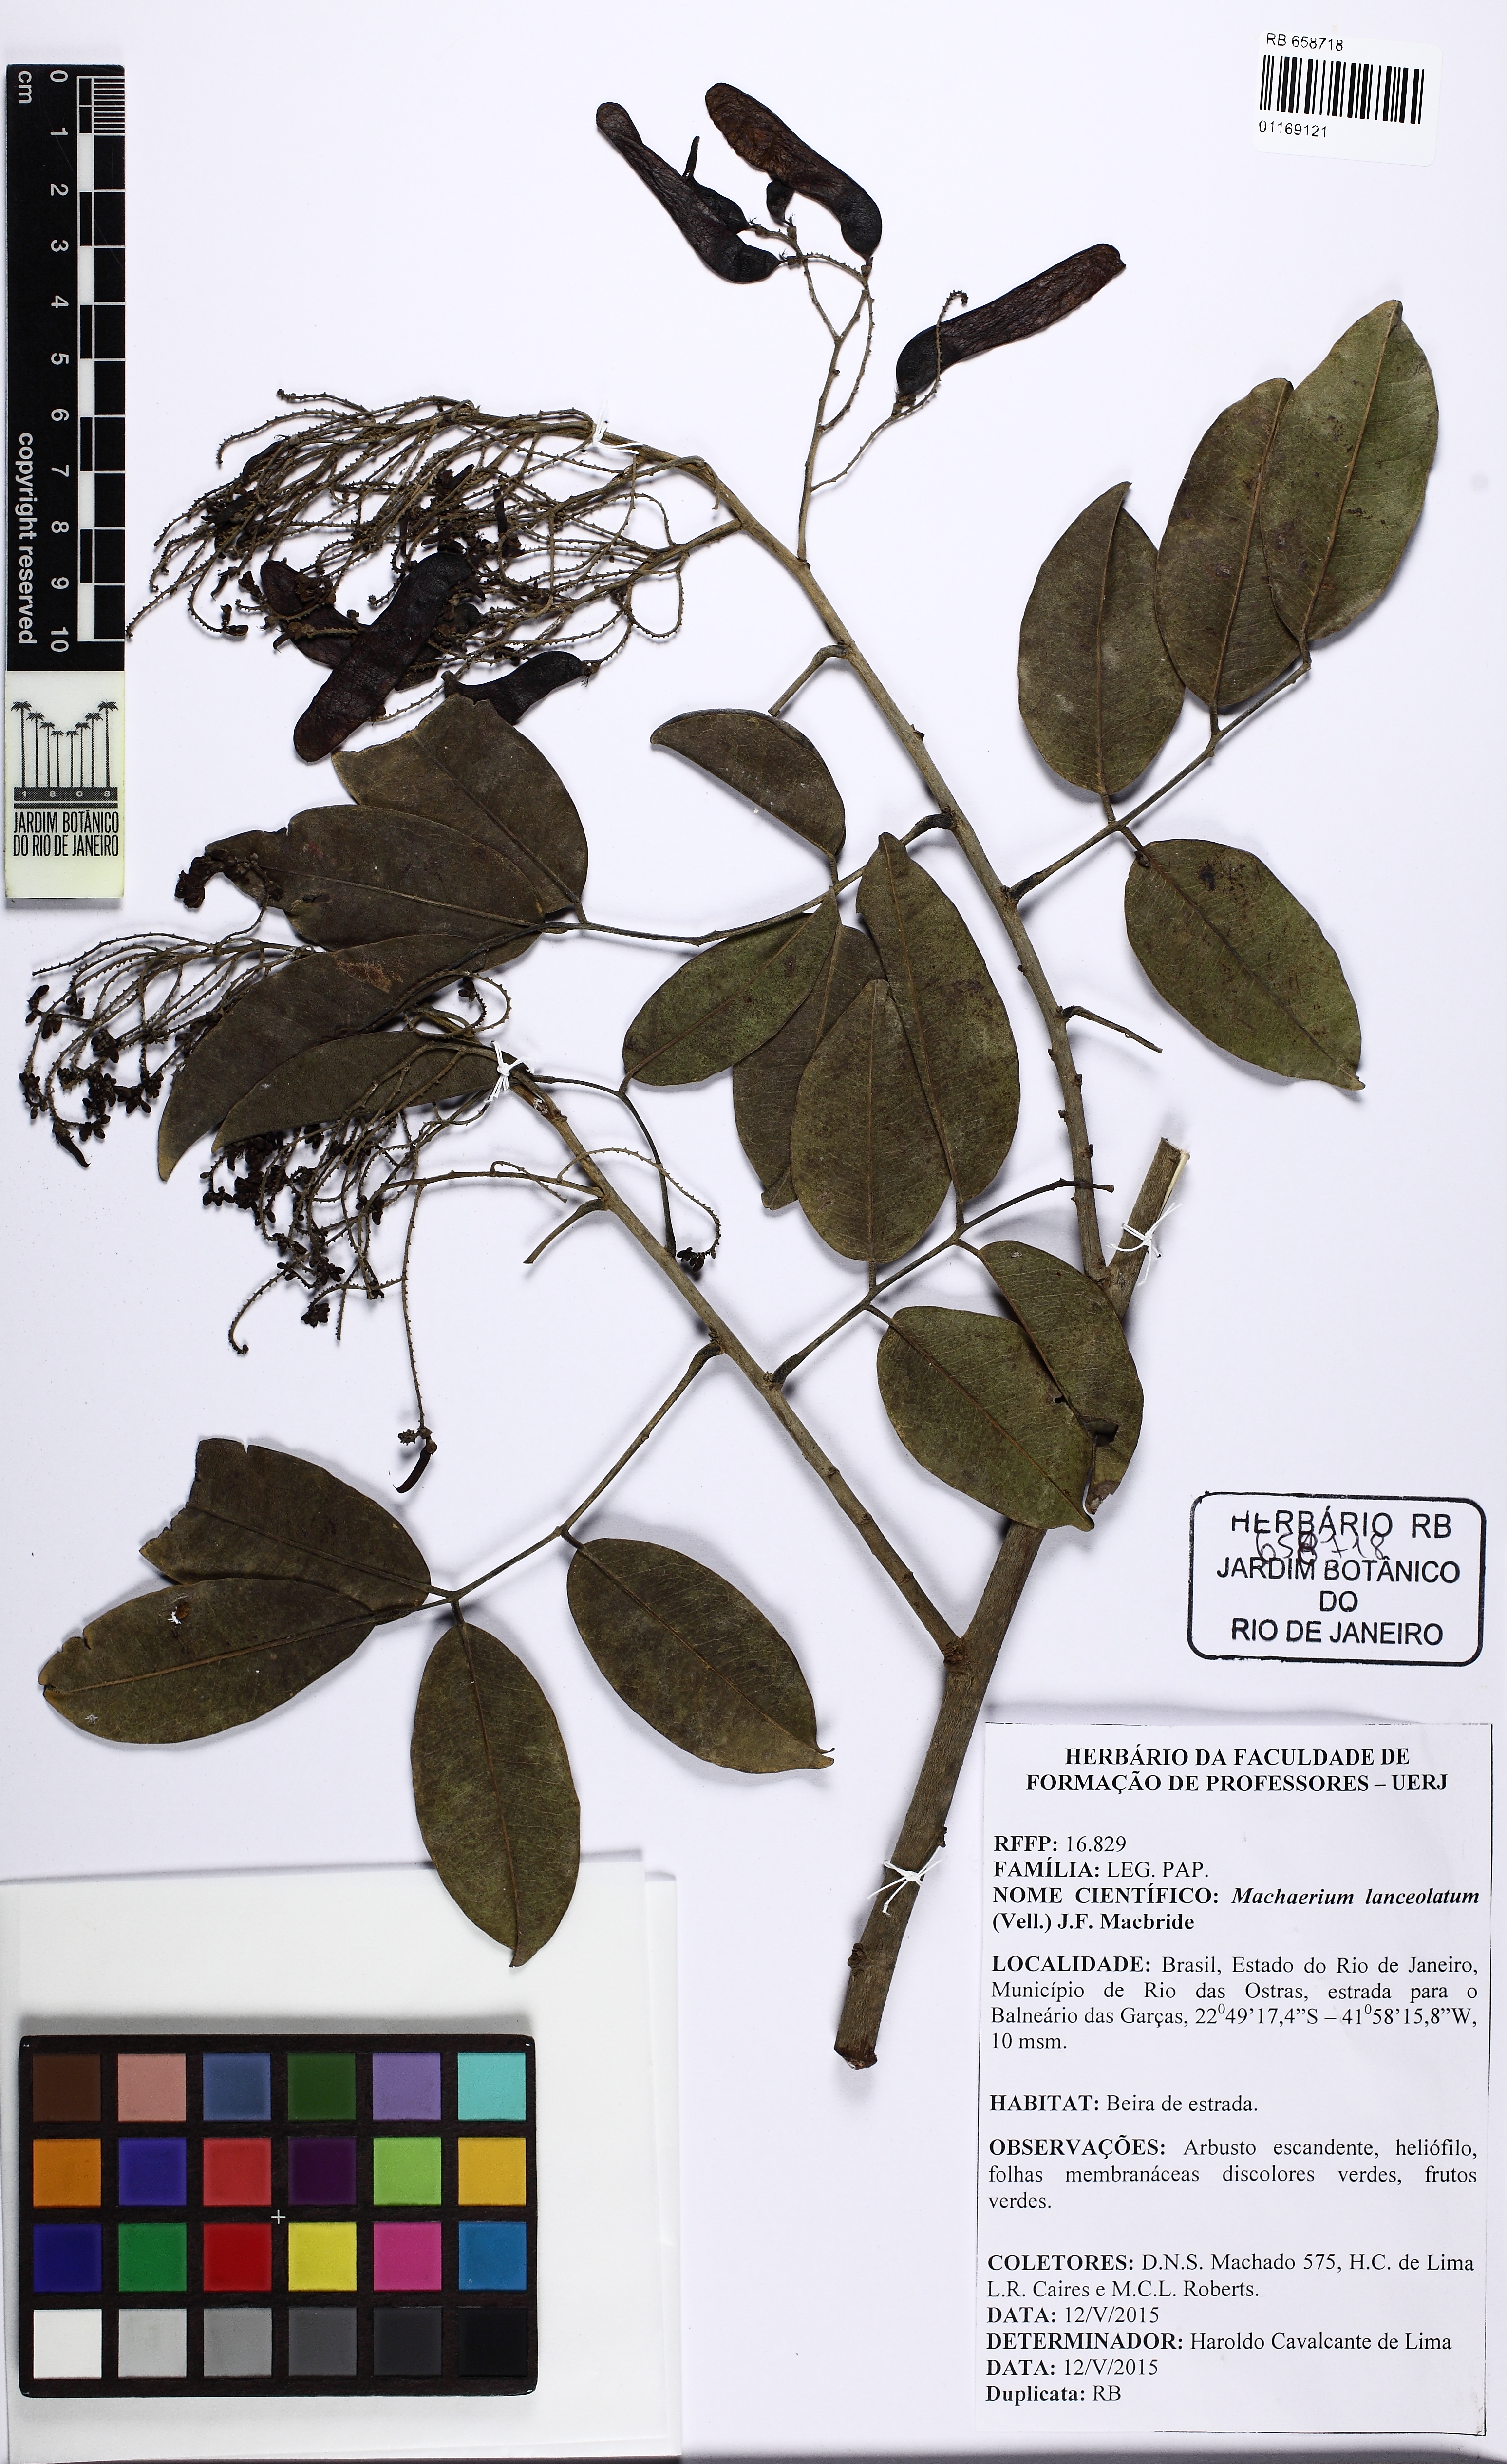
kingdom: Plantae
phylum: Tracheophyta
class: Magnoliopsida
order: Fabales
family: Fabaceae
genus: Machaerium
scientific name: Machaerium lanceolatum
